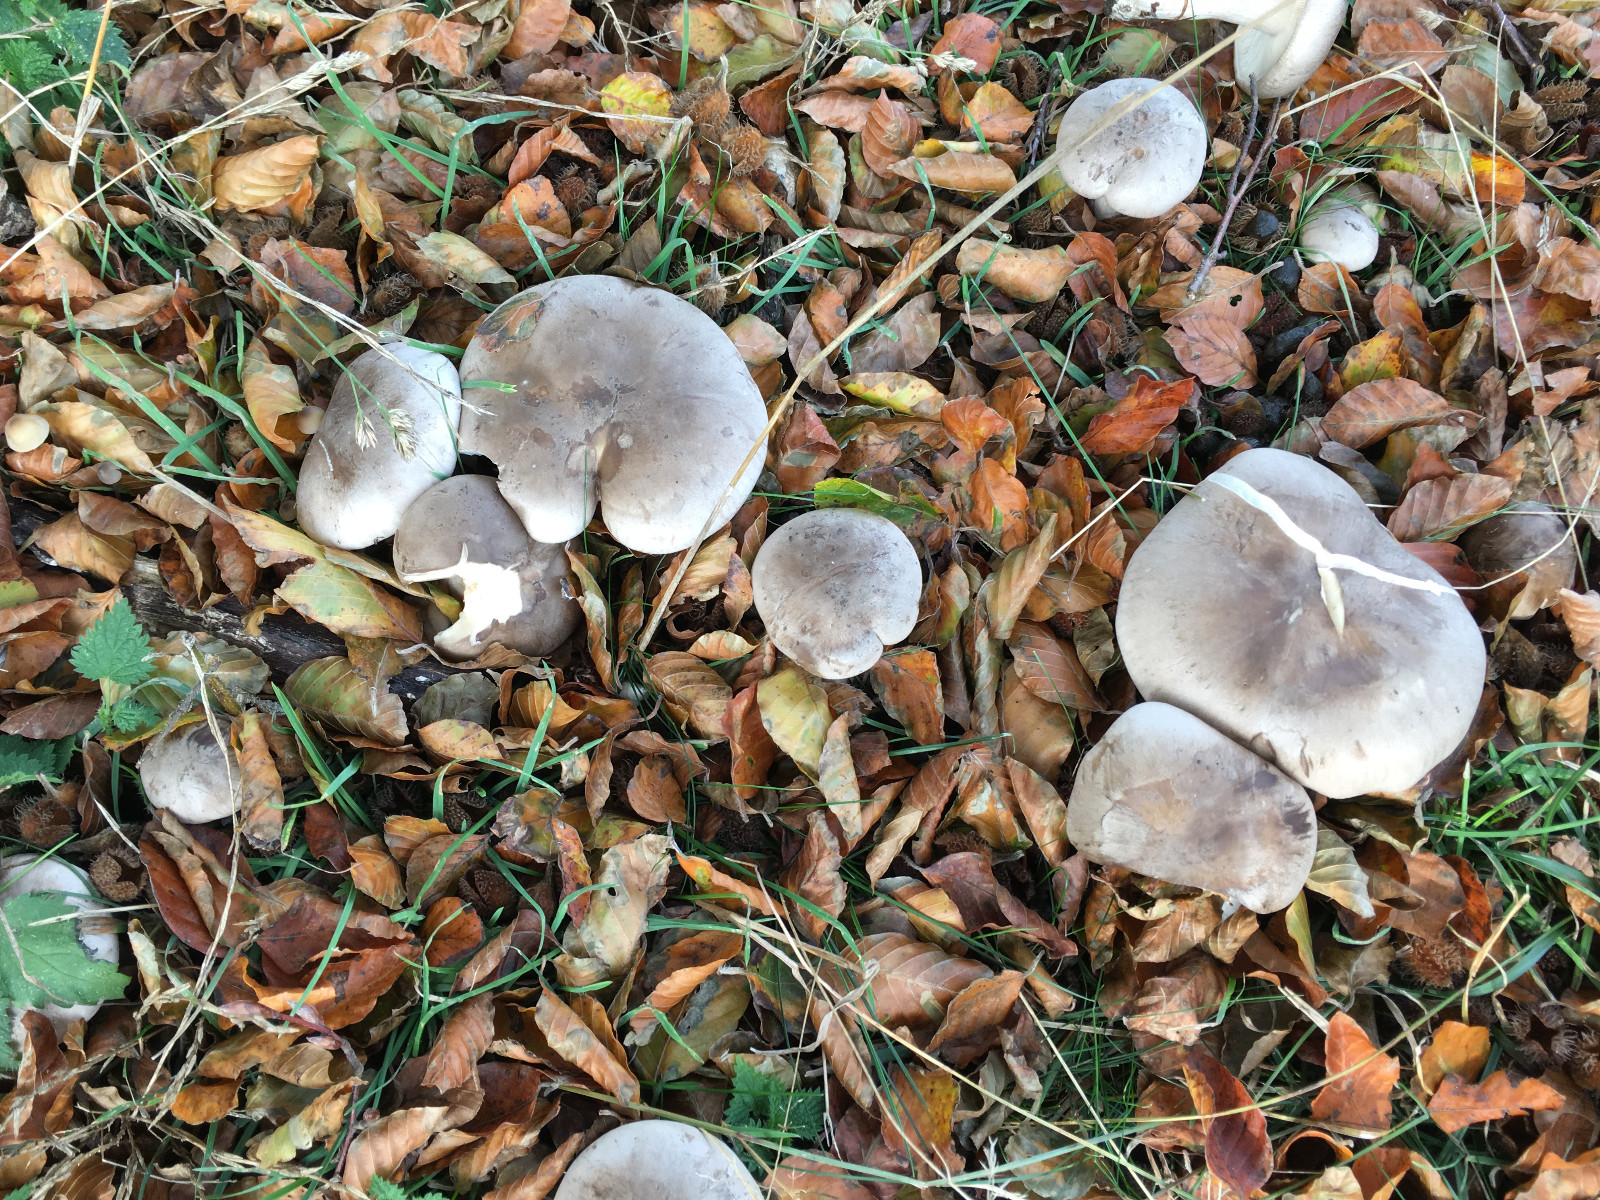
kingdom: Fungi
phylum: Basidiomycota
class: Agaricomycetes
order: Agaricales
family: Tricholomataceae
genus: Clitocybe
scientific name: Clitocybe nebularis
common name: tåge-tragthat
